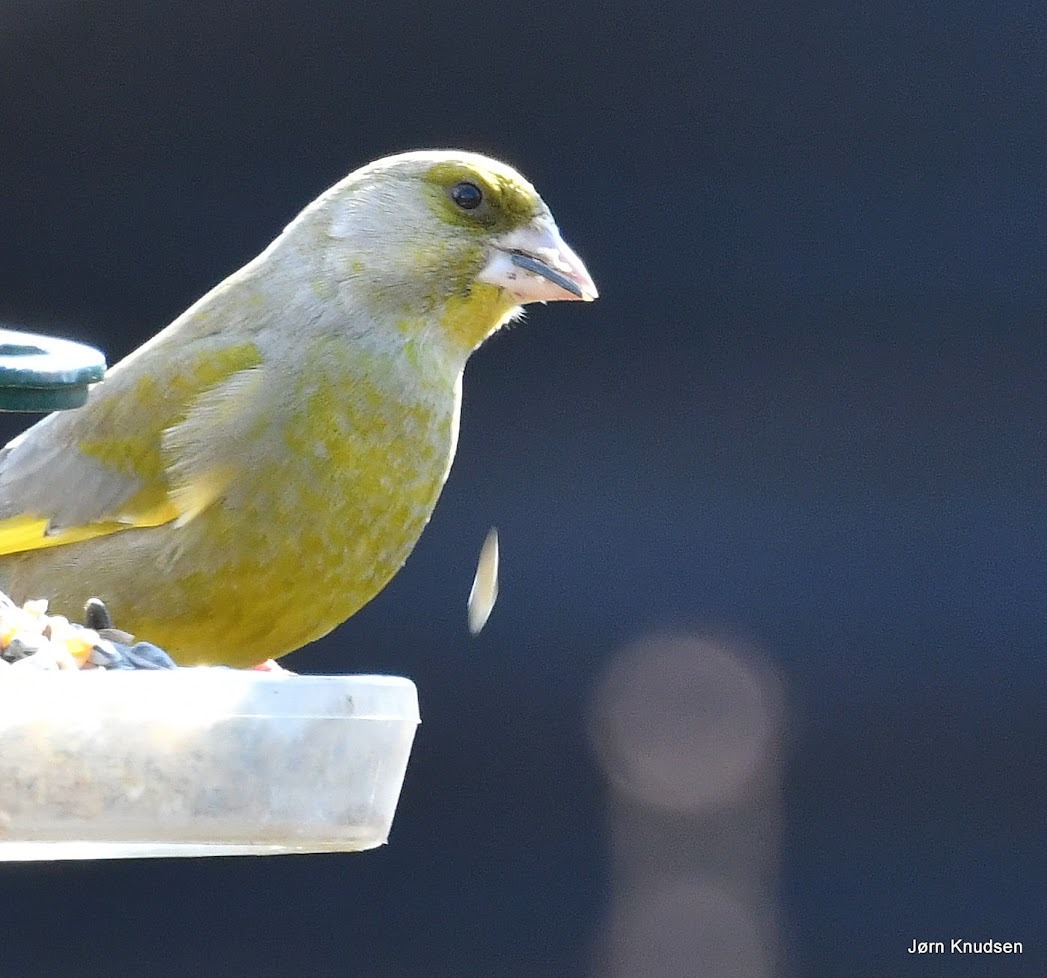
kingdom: Plantae
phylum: Tracheophyta
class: Liliopsida
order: Poales
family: Poaceae
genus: Chloris
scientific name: Chloris chloris
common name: Grønirisk
